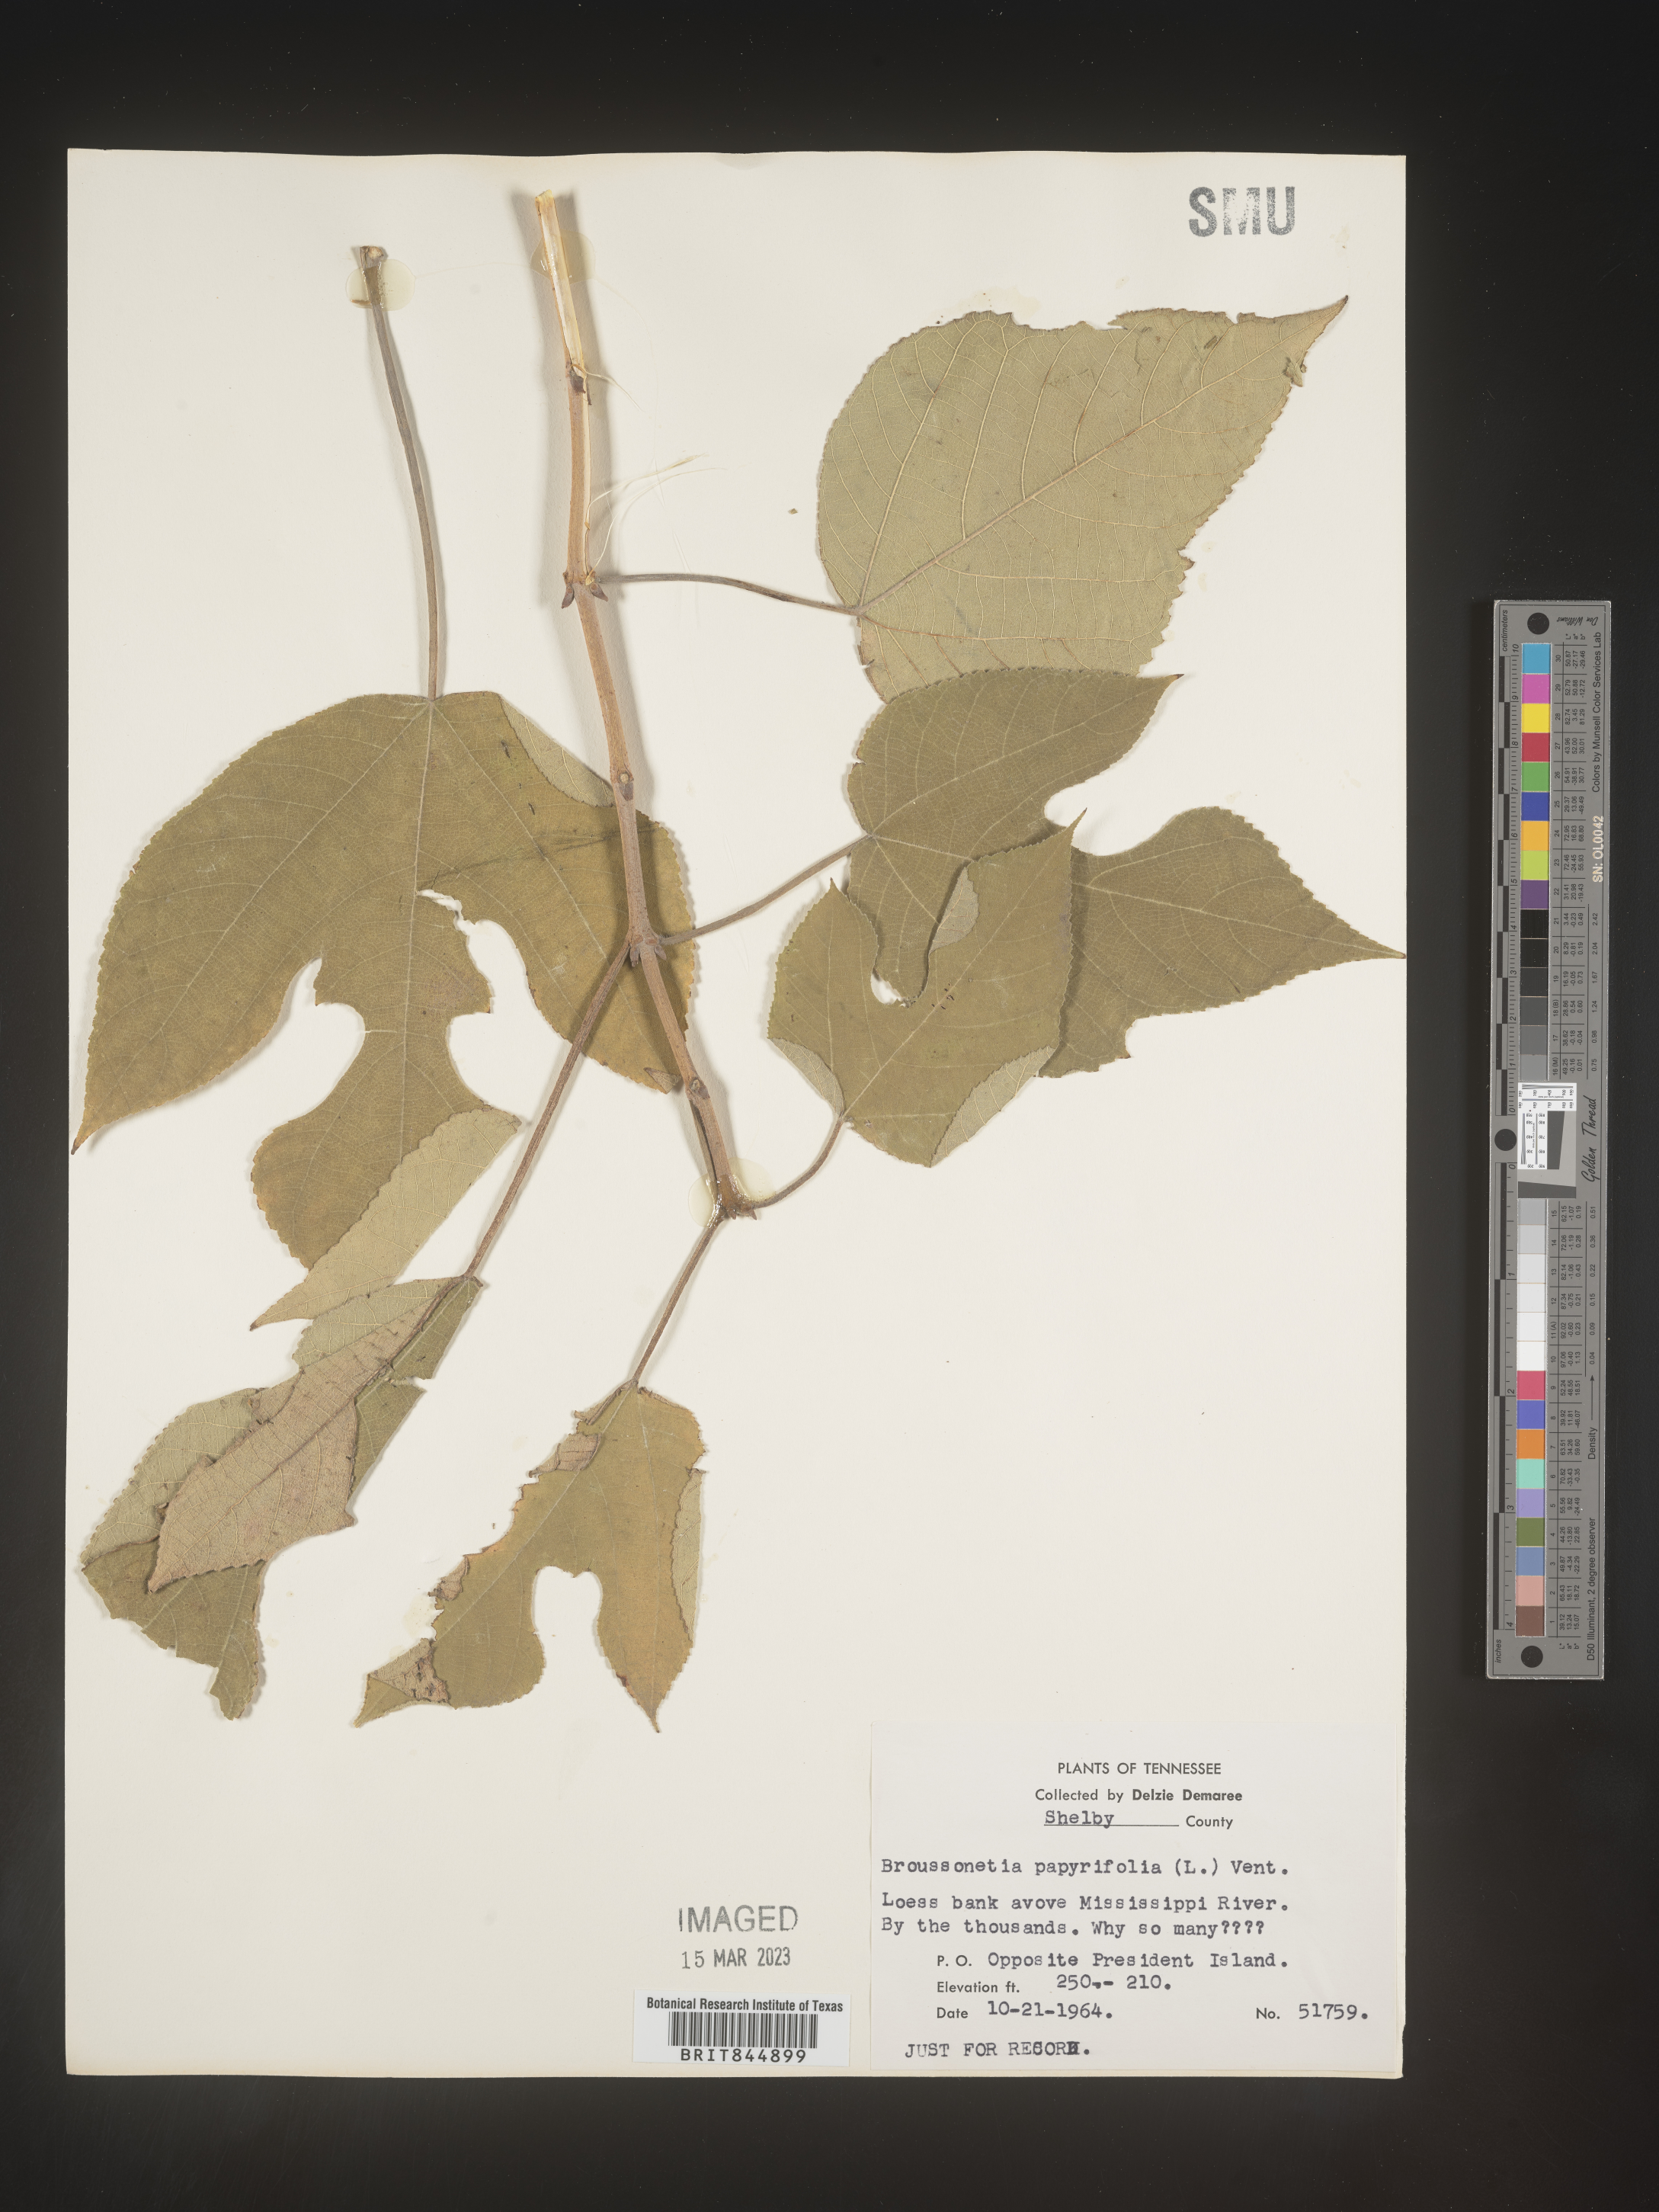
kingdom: Plantae
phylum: Tracheophyta
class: Magnoliopsida
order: Rosales
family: Moraceae
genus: Broussonetia
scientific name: Broussonetia
